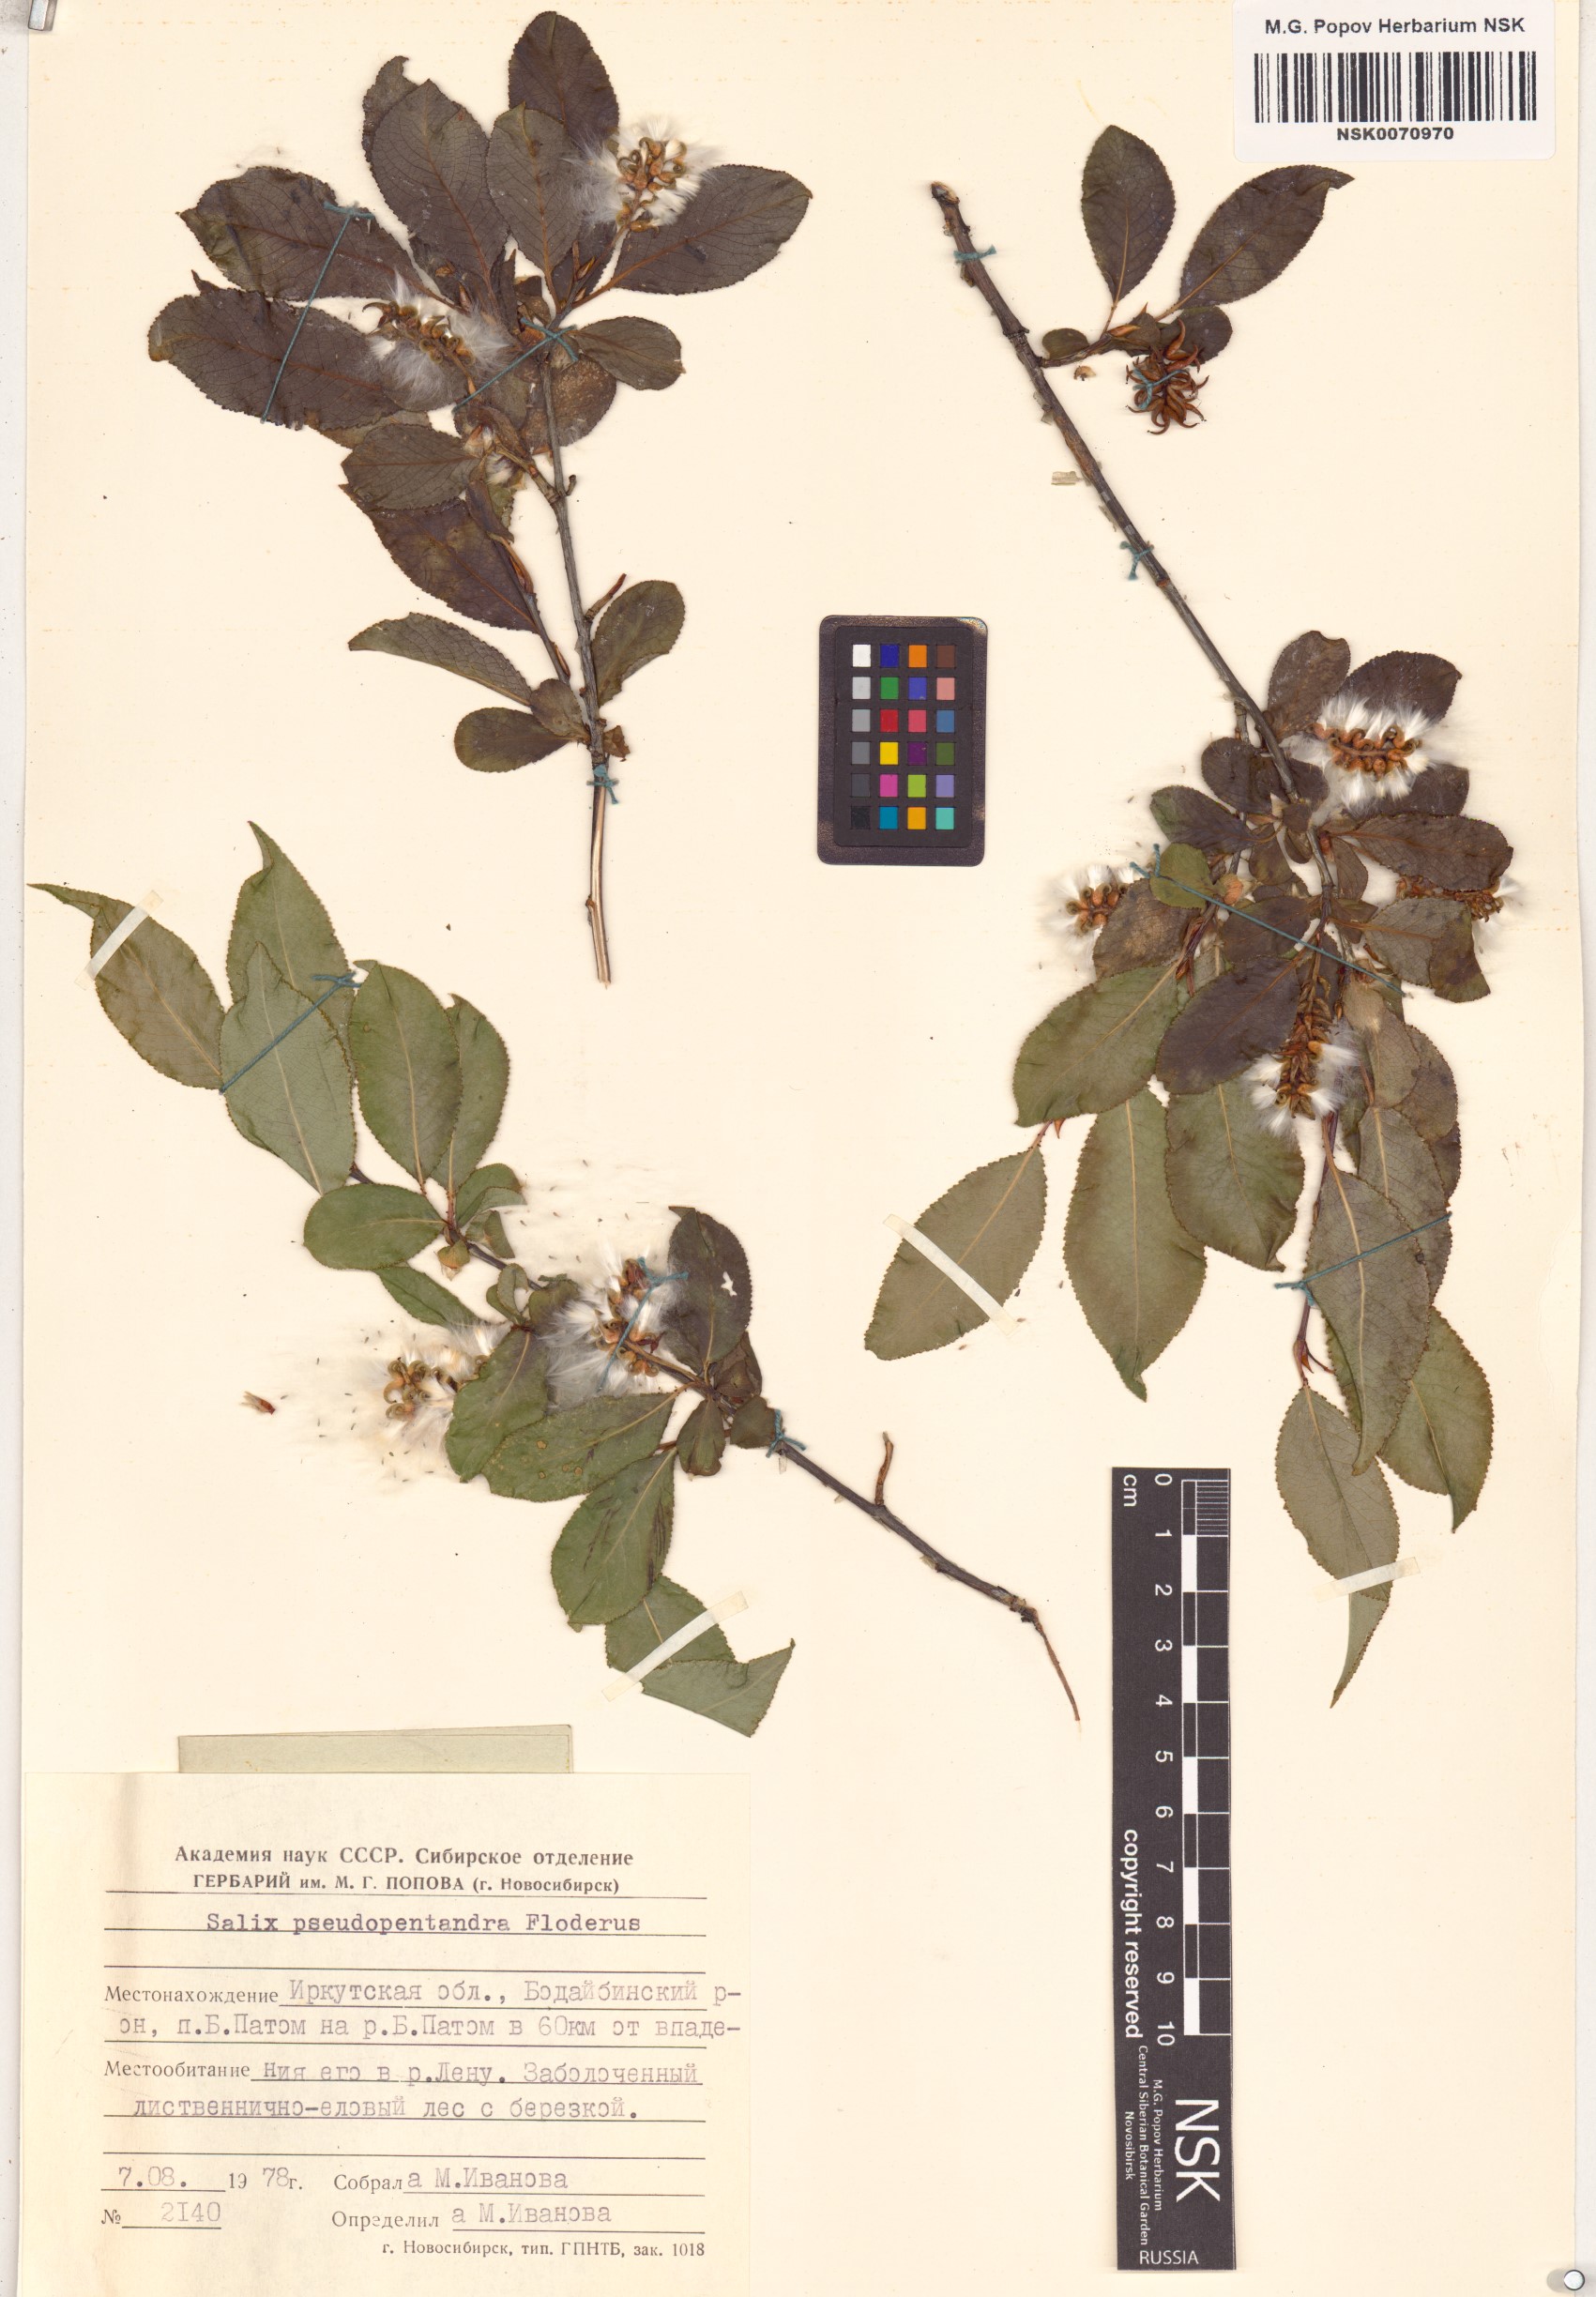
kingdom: Plantae
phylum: Tracheophyta
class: Magnoliopsida
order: Malpighiales
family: Salicaceae
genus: Salix
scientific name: Salix pseudopentandra
